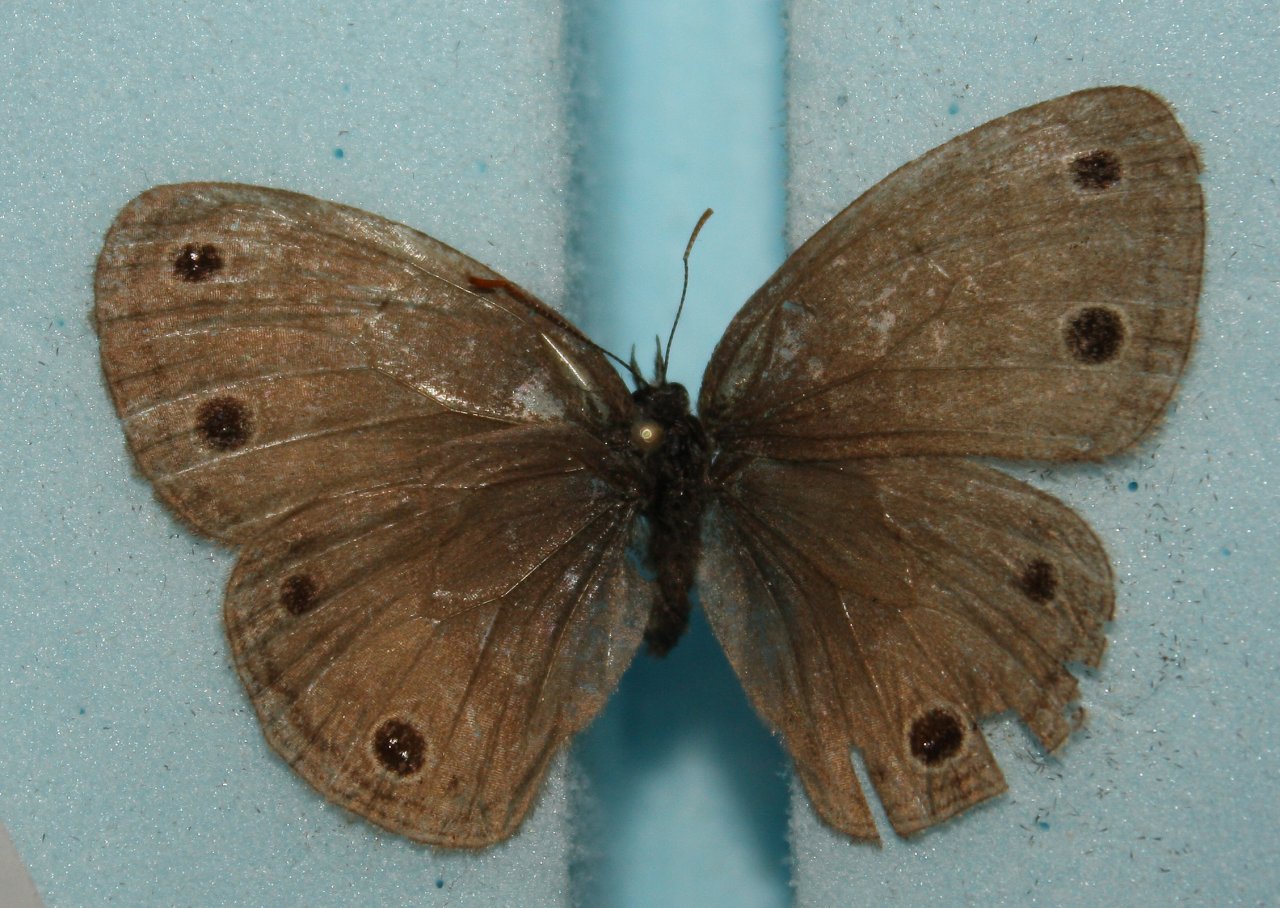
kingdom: Animalia
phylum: Arthropoda
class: Insecta
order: Lepidoptera
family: Nymphalidae
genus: Euptychia
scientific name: Euptychia cymela
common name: Little Wood Satyr
